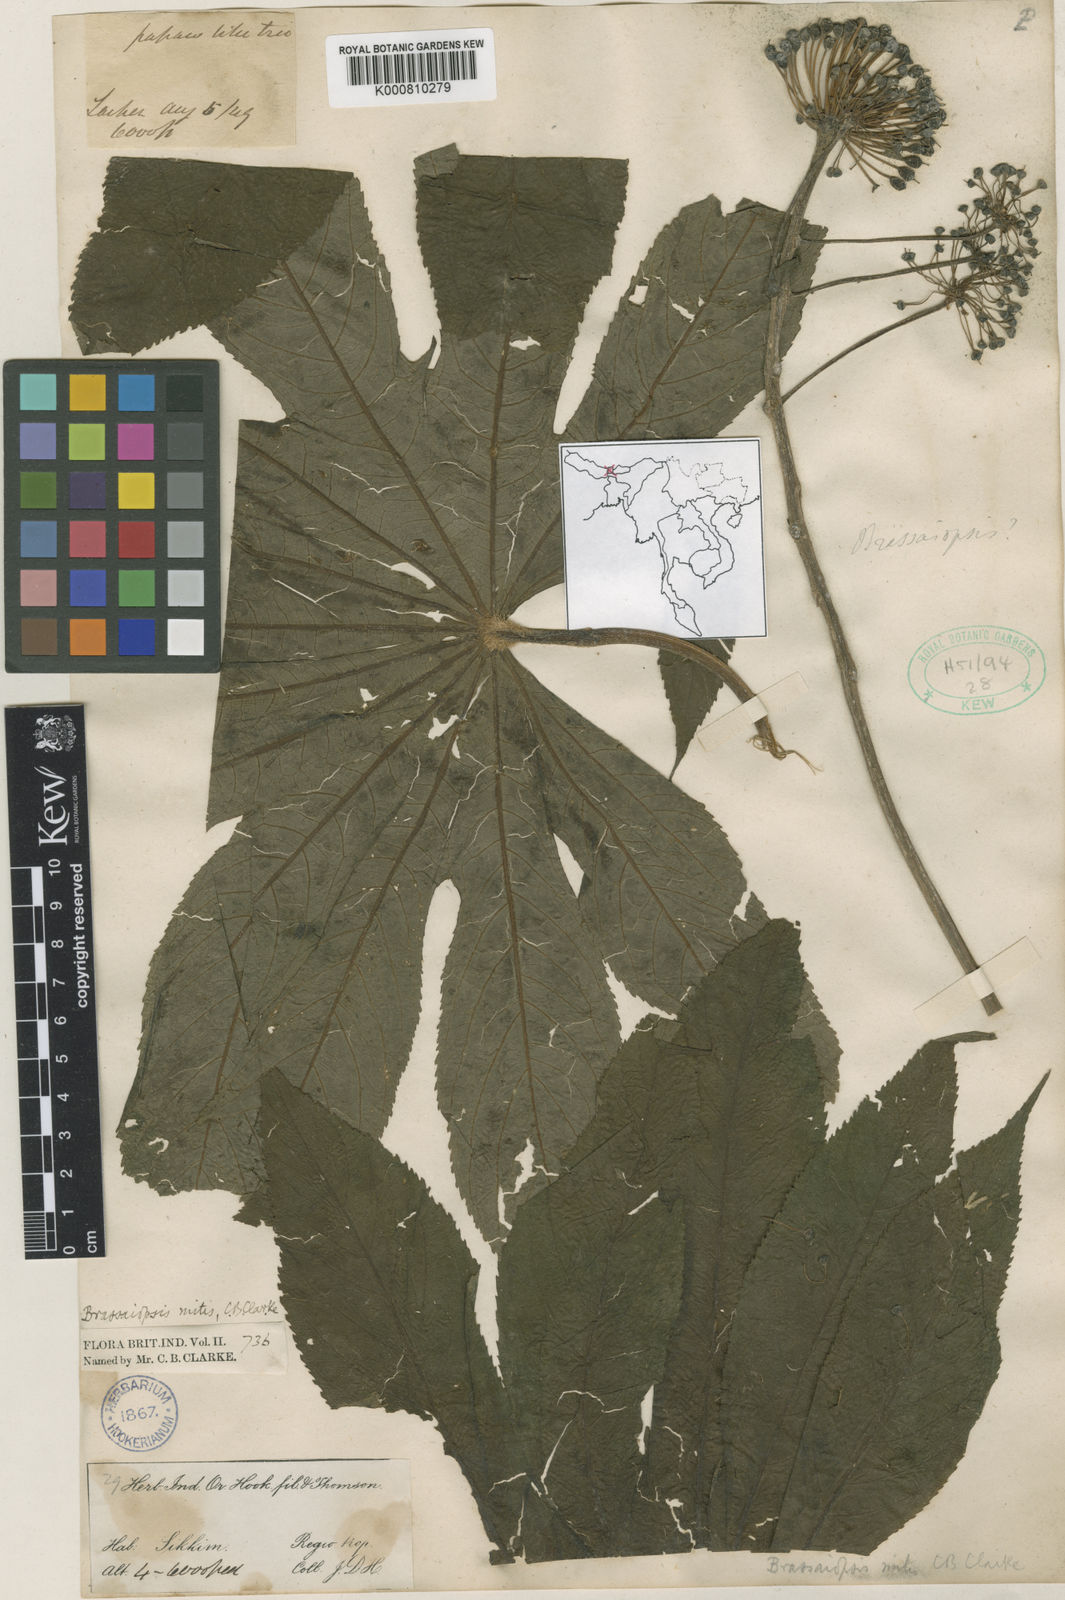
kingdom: Plantae
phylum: Tracheophyta
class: Magnoliopsida
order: Apiales
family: Araliaceae
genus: Brassaiopsis
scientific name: Brassaiopsis mitis
